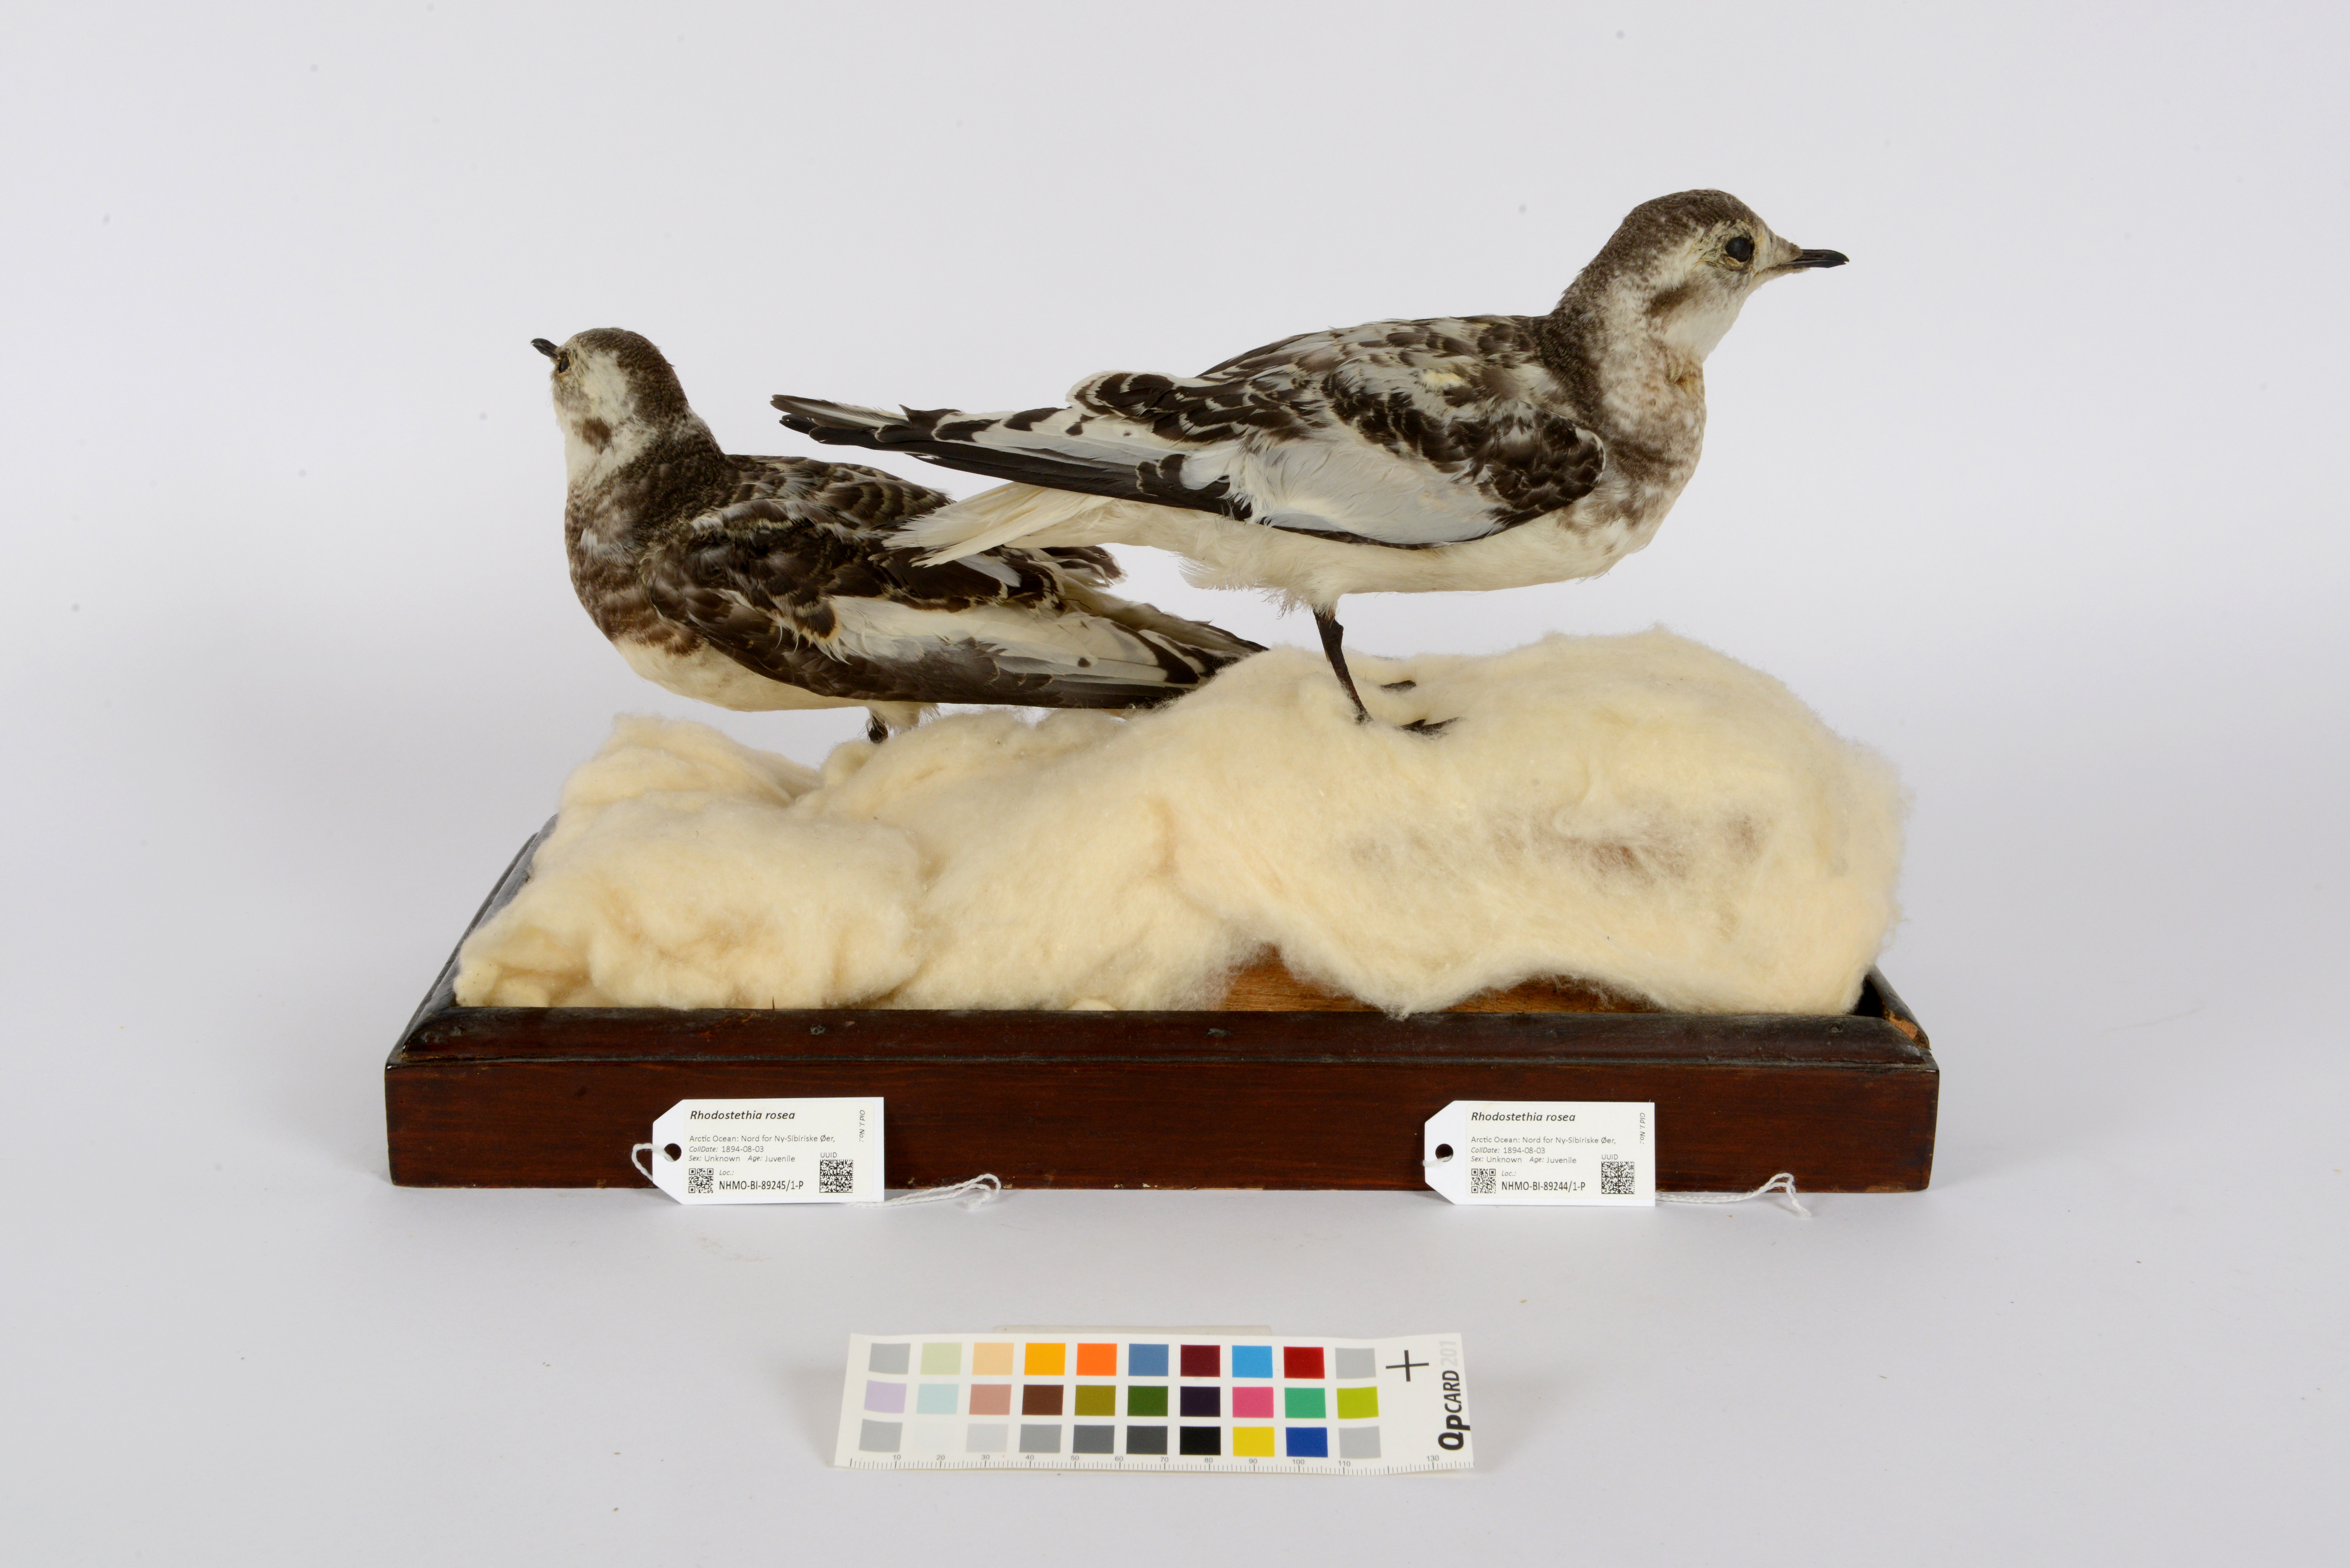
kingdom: Animalia
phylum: Chordata
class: Aves
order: Charadriiformes
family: Laridae
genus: Rhodostethia
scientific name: Rhodostethia rosea
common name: Ross's gull
